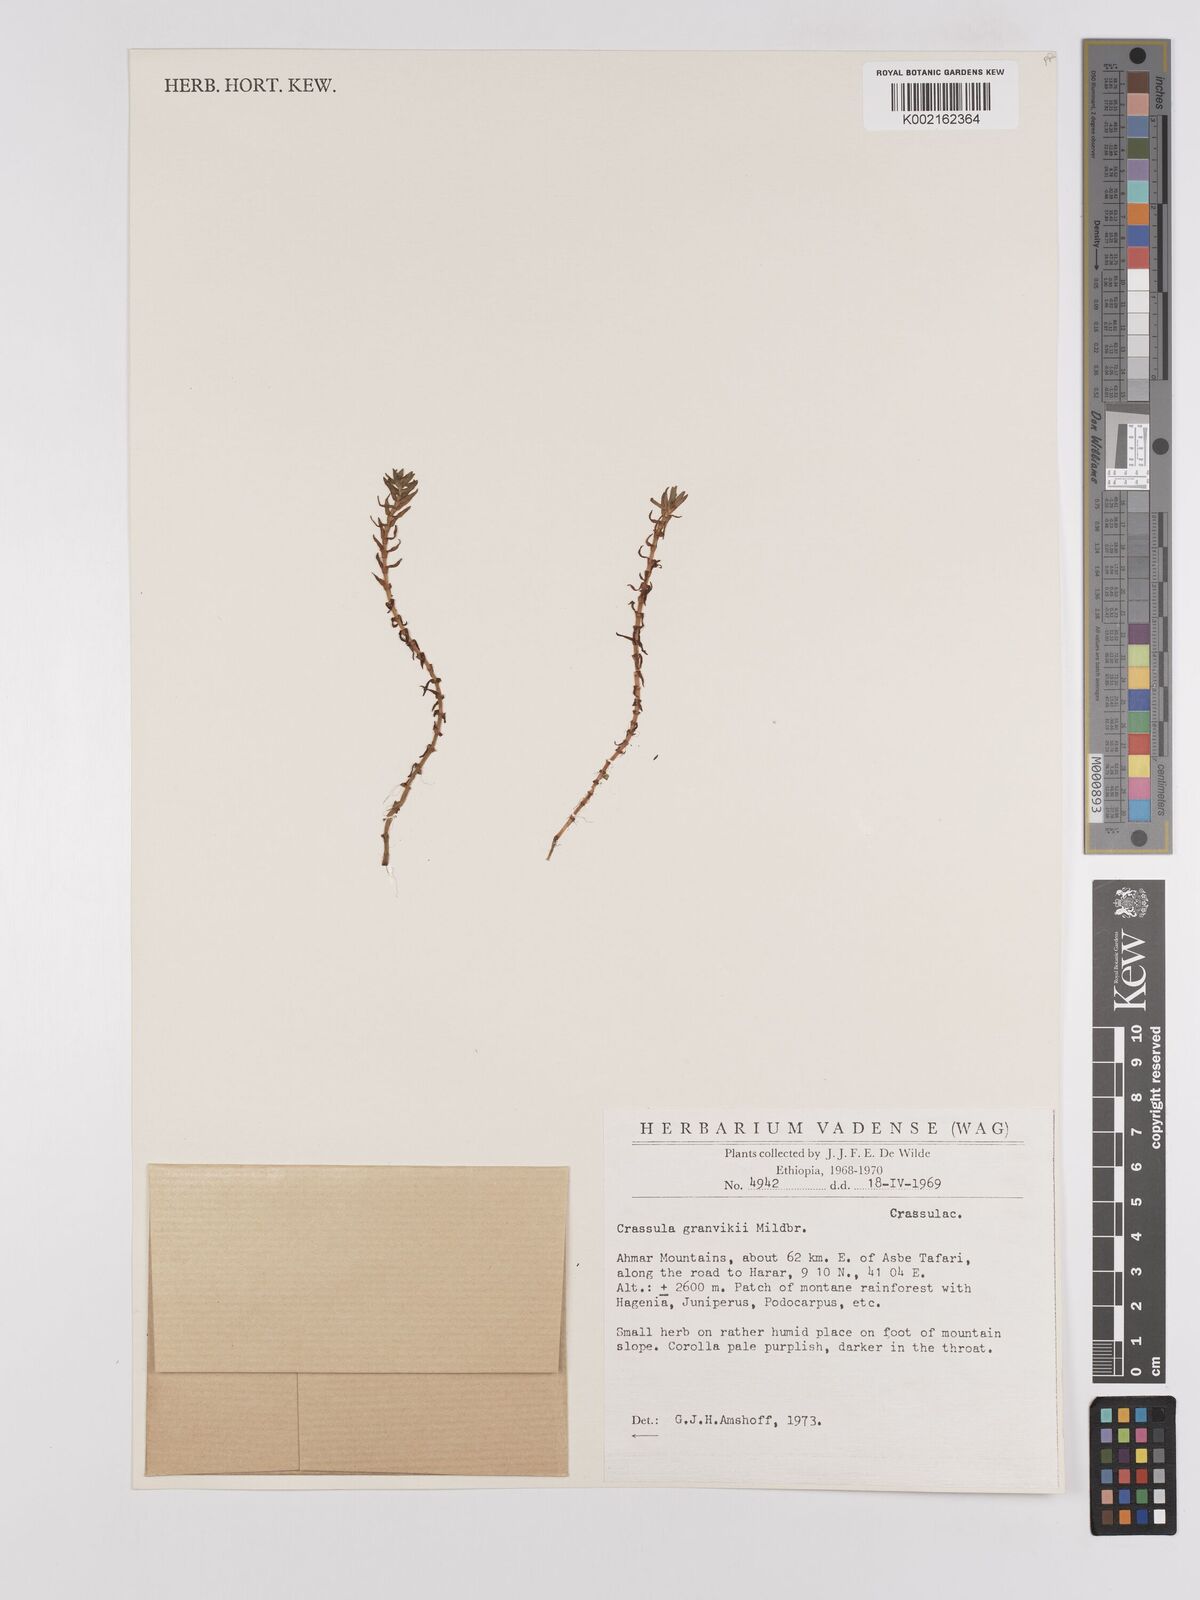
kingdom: Plantae
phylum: Tracheophyta
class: Magnoliopsida
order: Saxifragales
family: Crassulaceae
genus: Crassula
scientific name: Crassula granvikii
